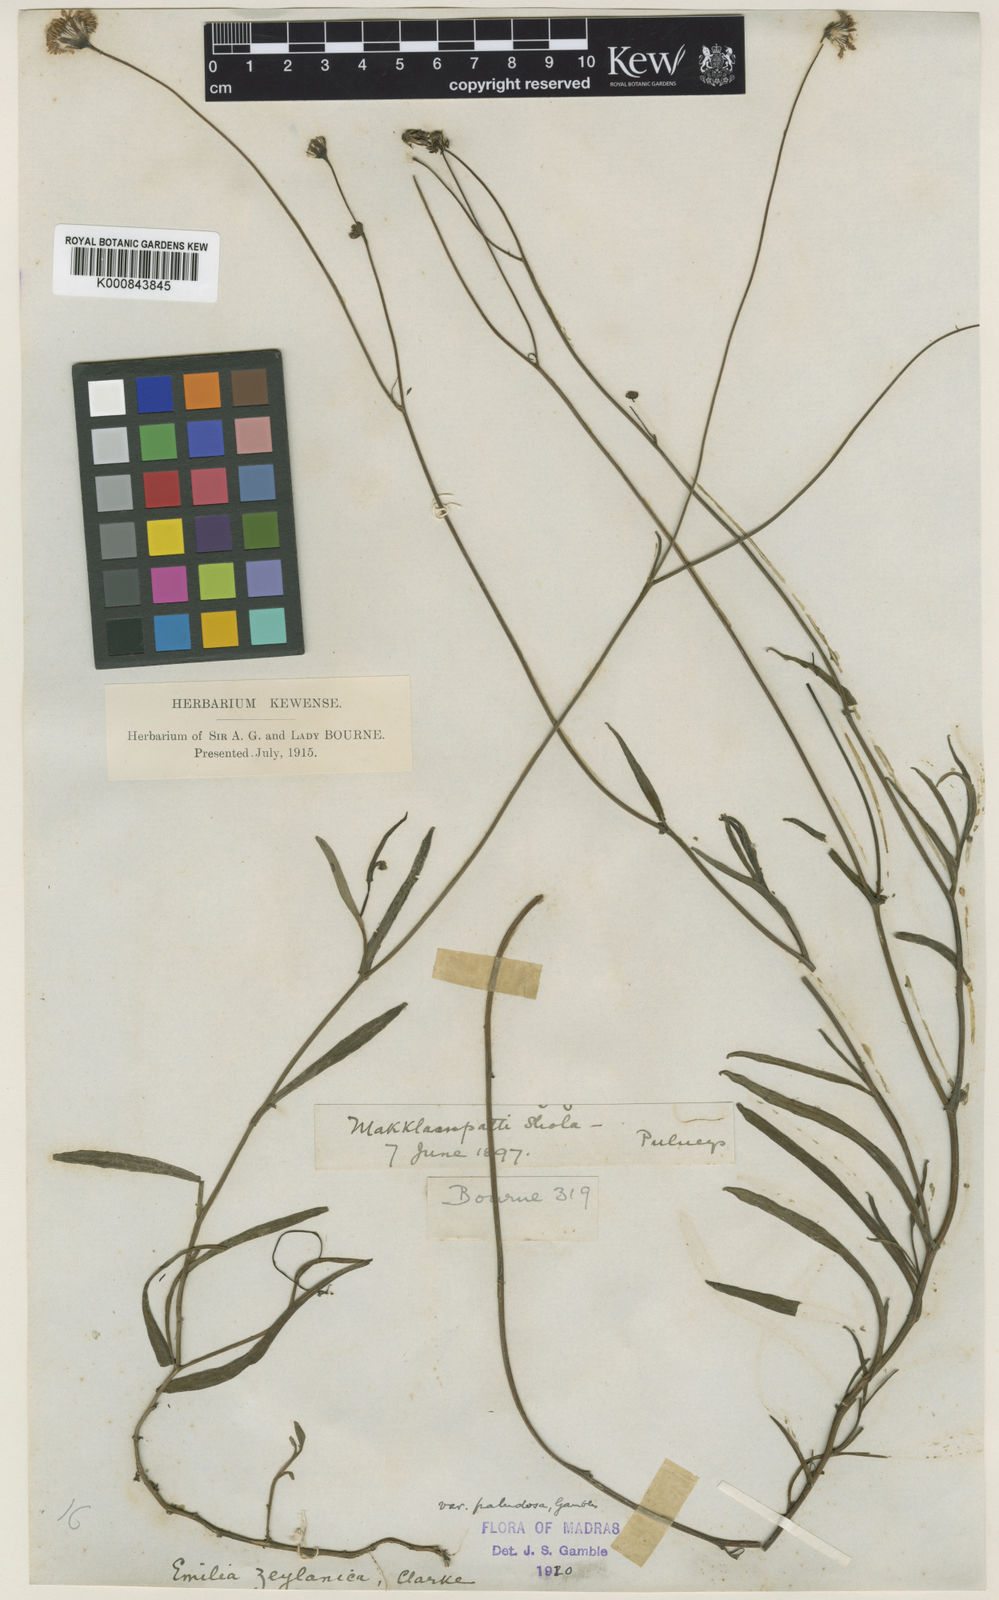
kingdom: Plantae
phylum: Tracheophyta
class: Magnoliopsida
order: Asterales
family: Asteraceae
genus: Emilia
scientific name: Emilia zeylanica
